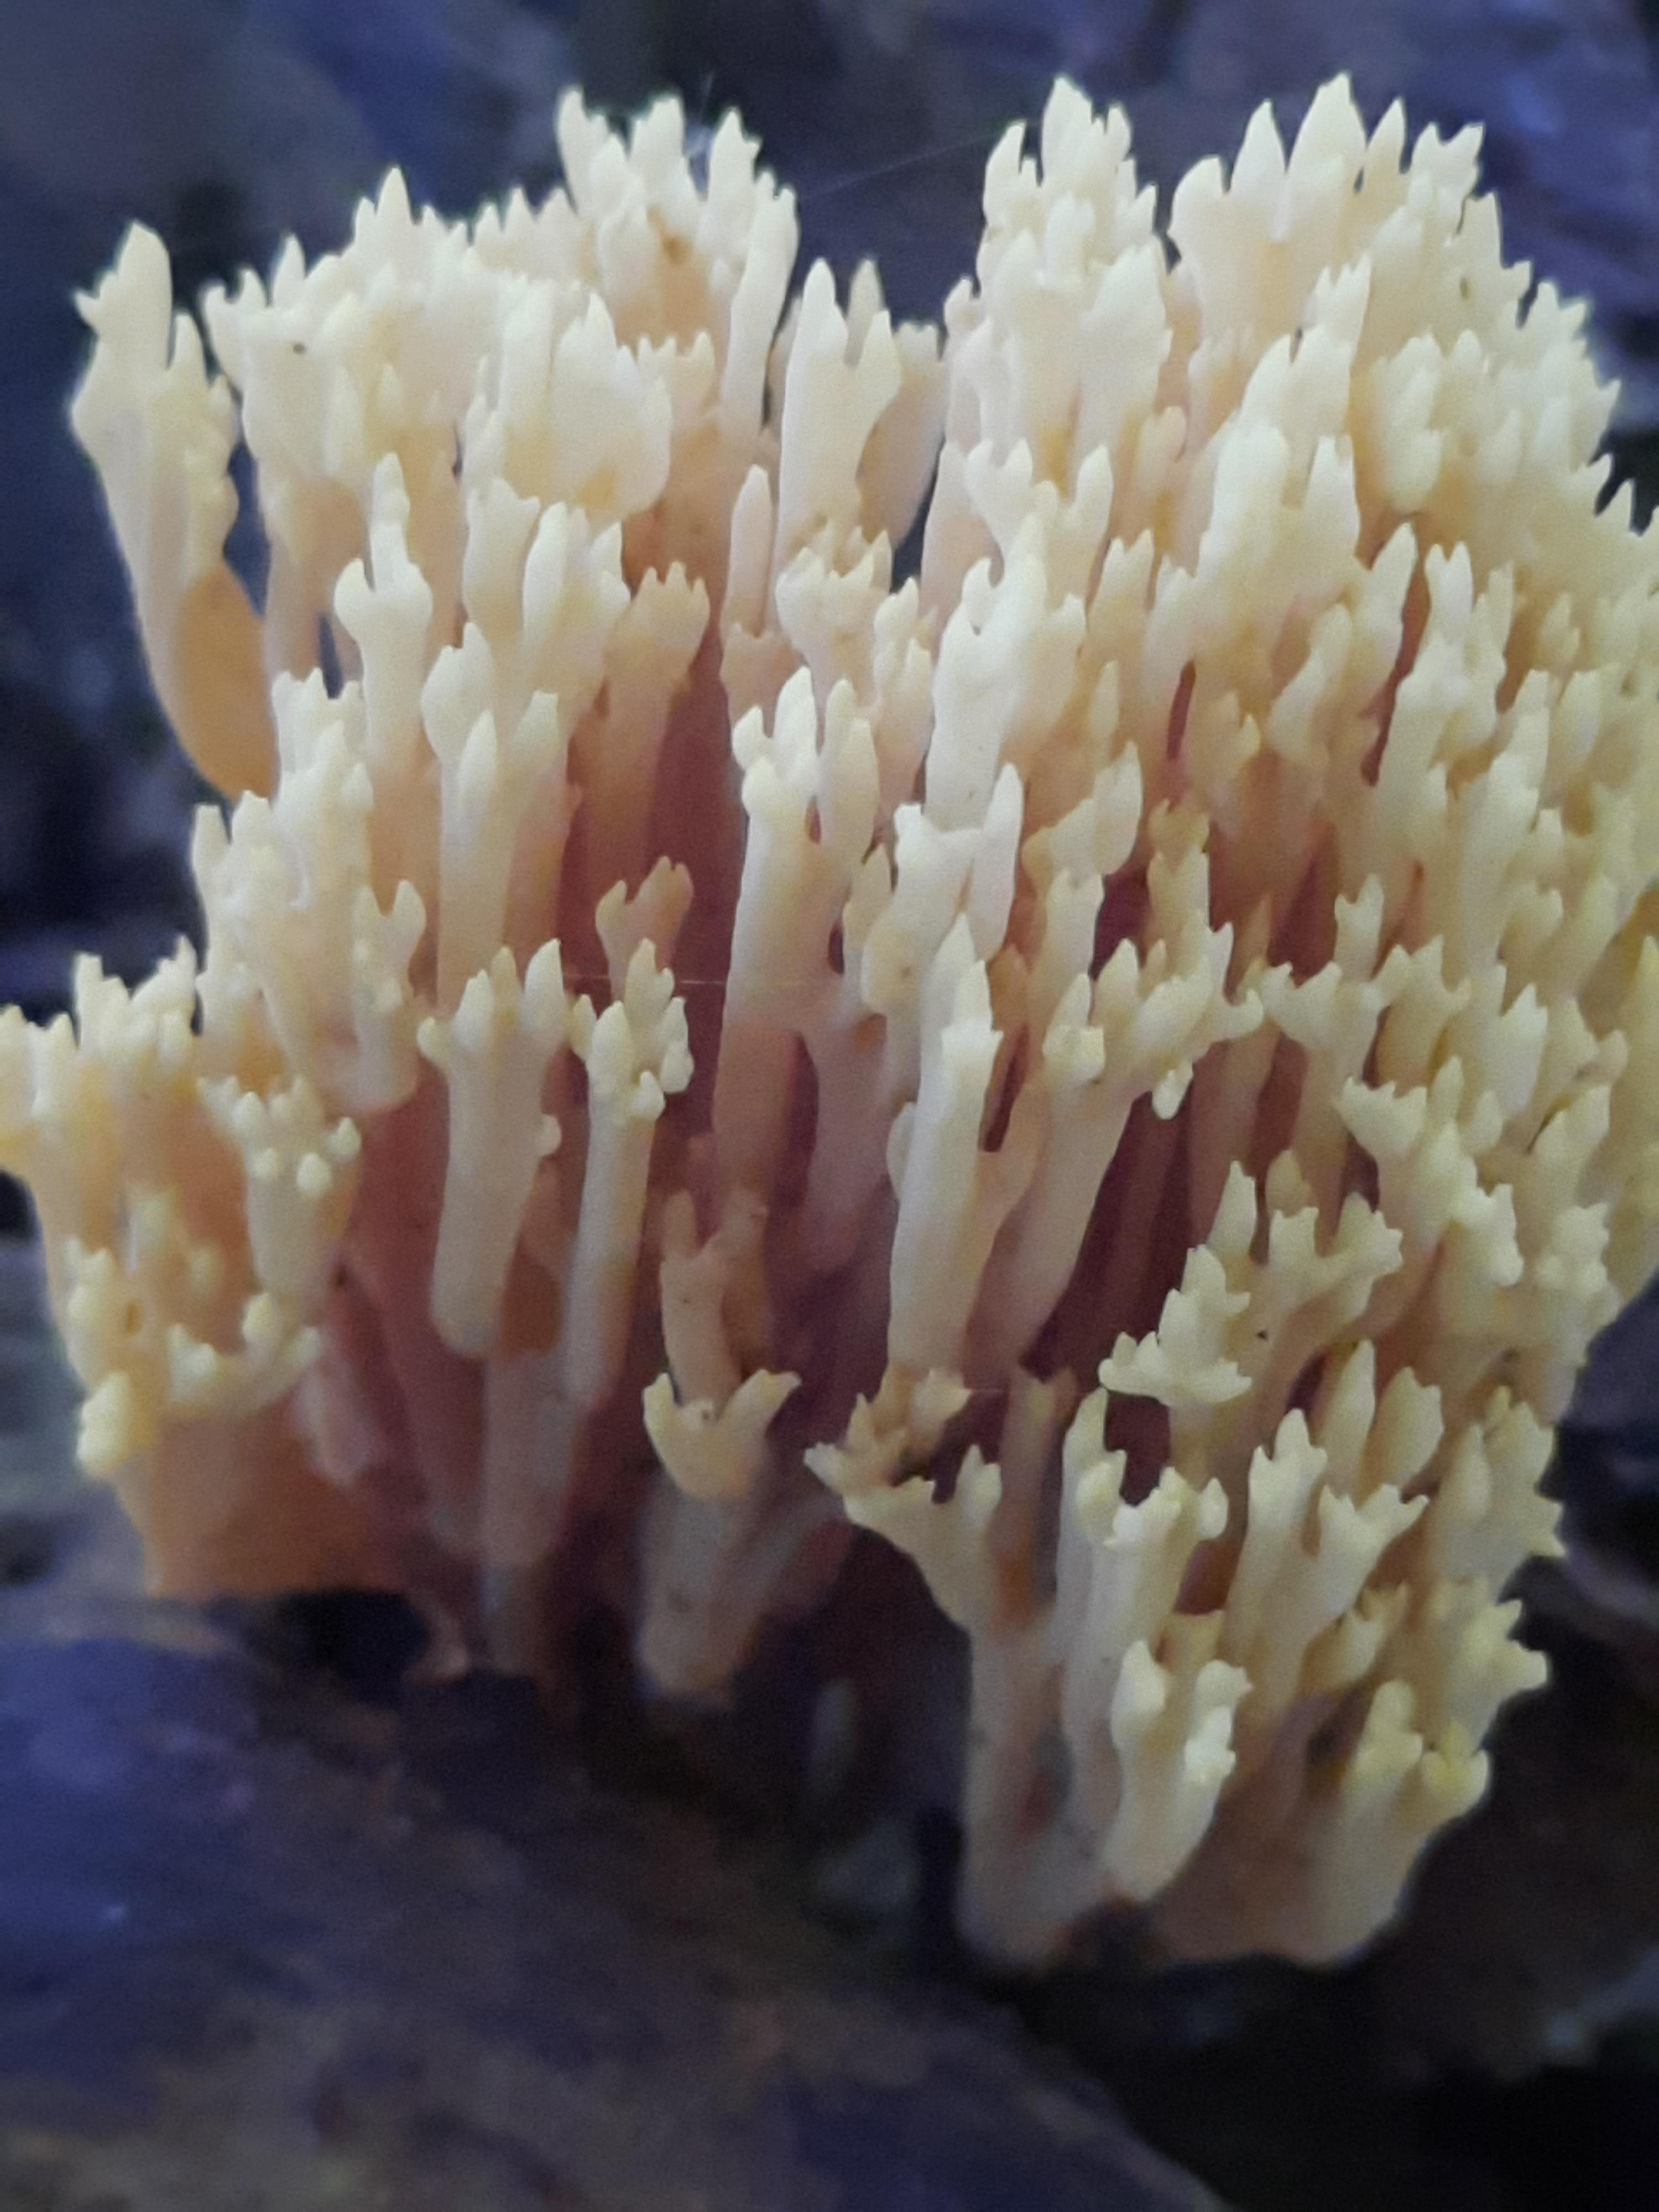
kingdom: Fungi
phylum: Basidiomycota
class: Agaricomycetes
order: Gomphales
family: Gomphaceae
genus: Ramaria
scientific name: Ramaria stricta
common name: rank koralsvamp
